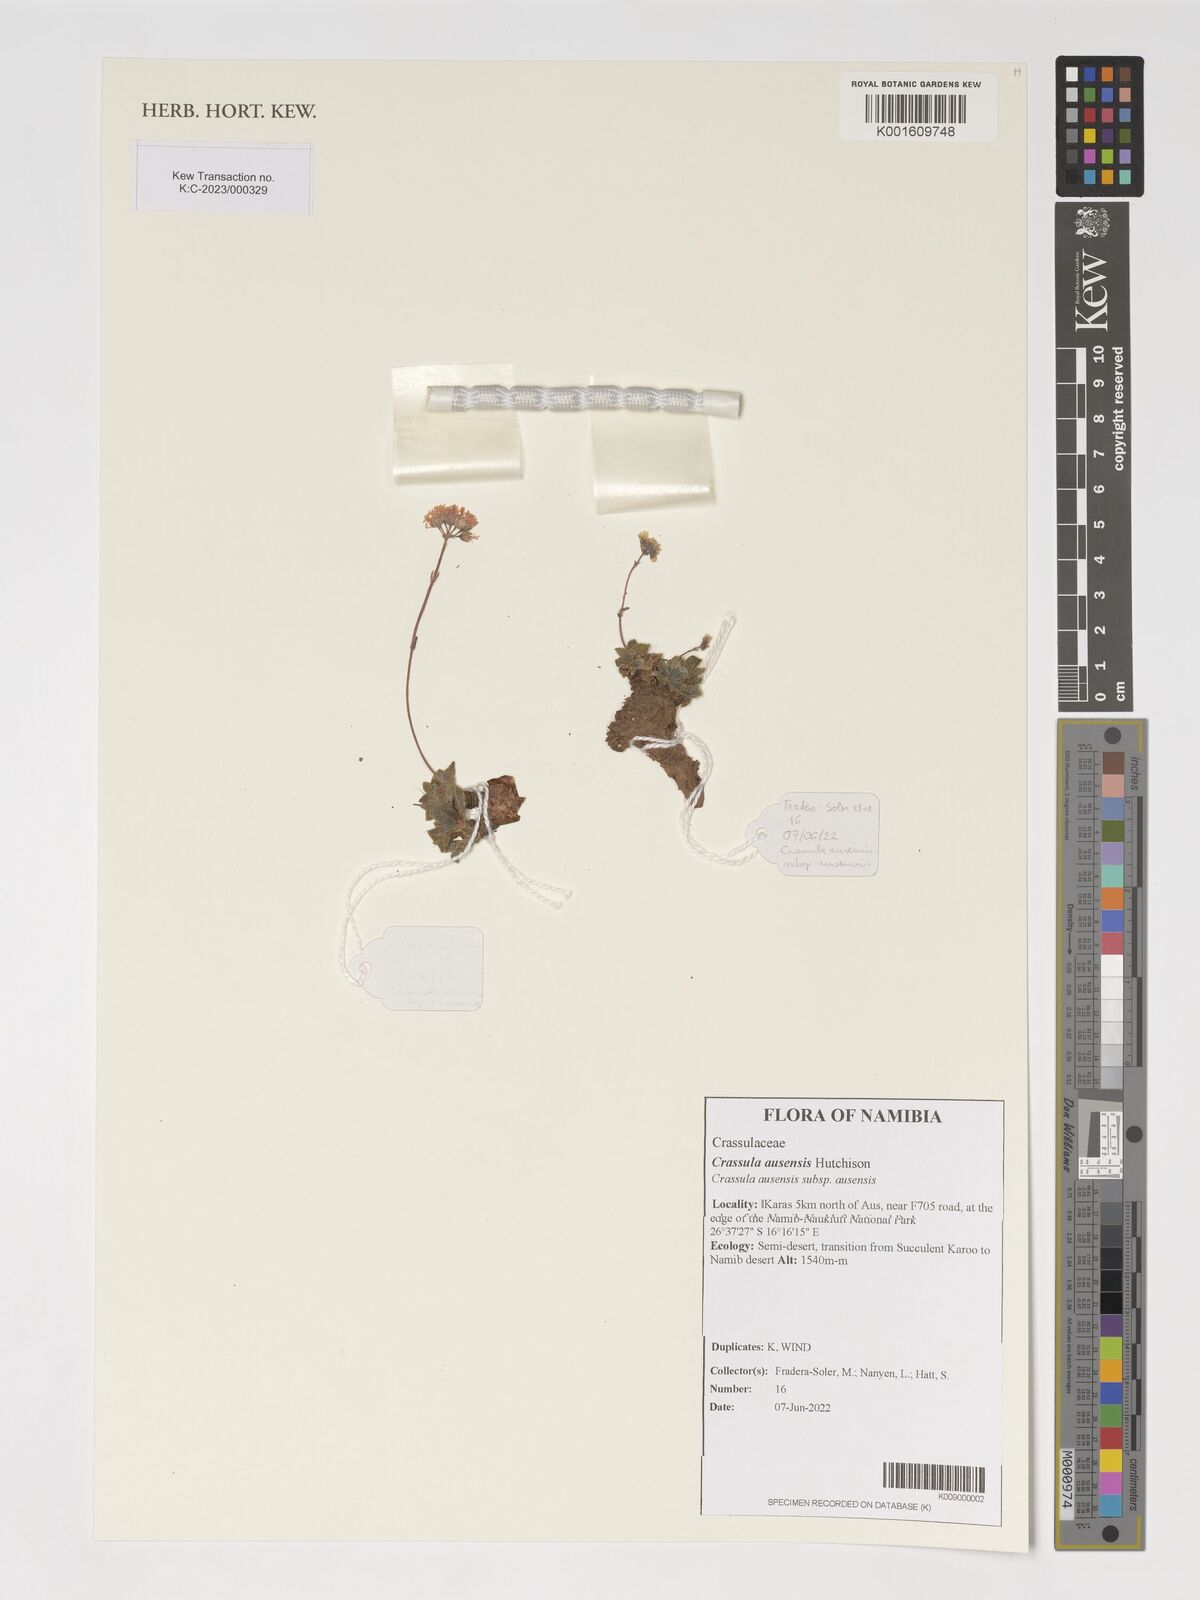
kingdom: Plantae
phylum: Tracheophyta
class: Magnoliopsida
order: Saxifragales
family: Crassulaceae
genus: Crassula
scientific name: Crassula ausensis
